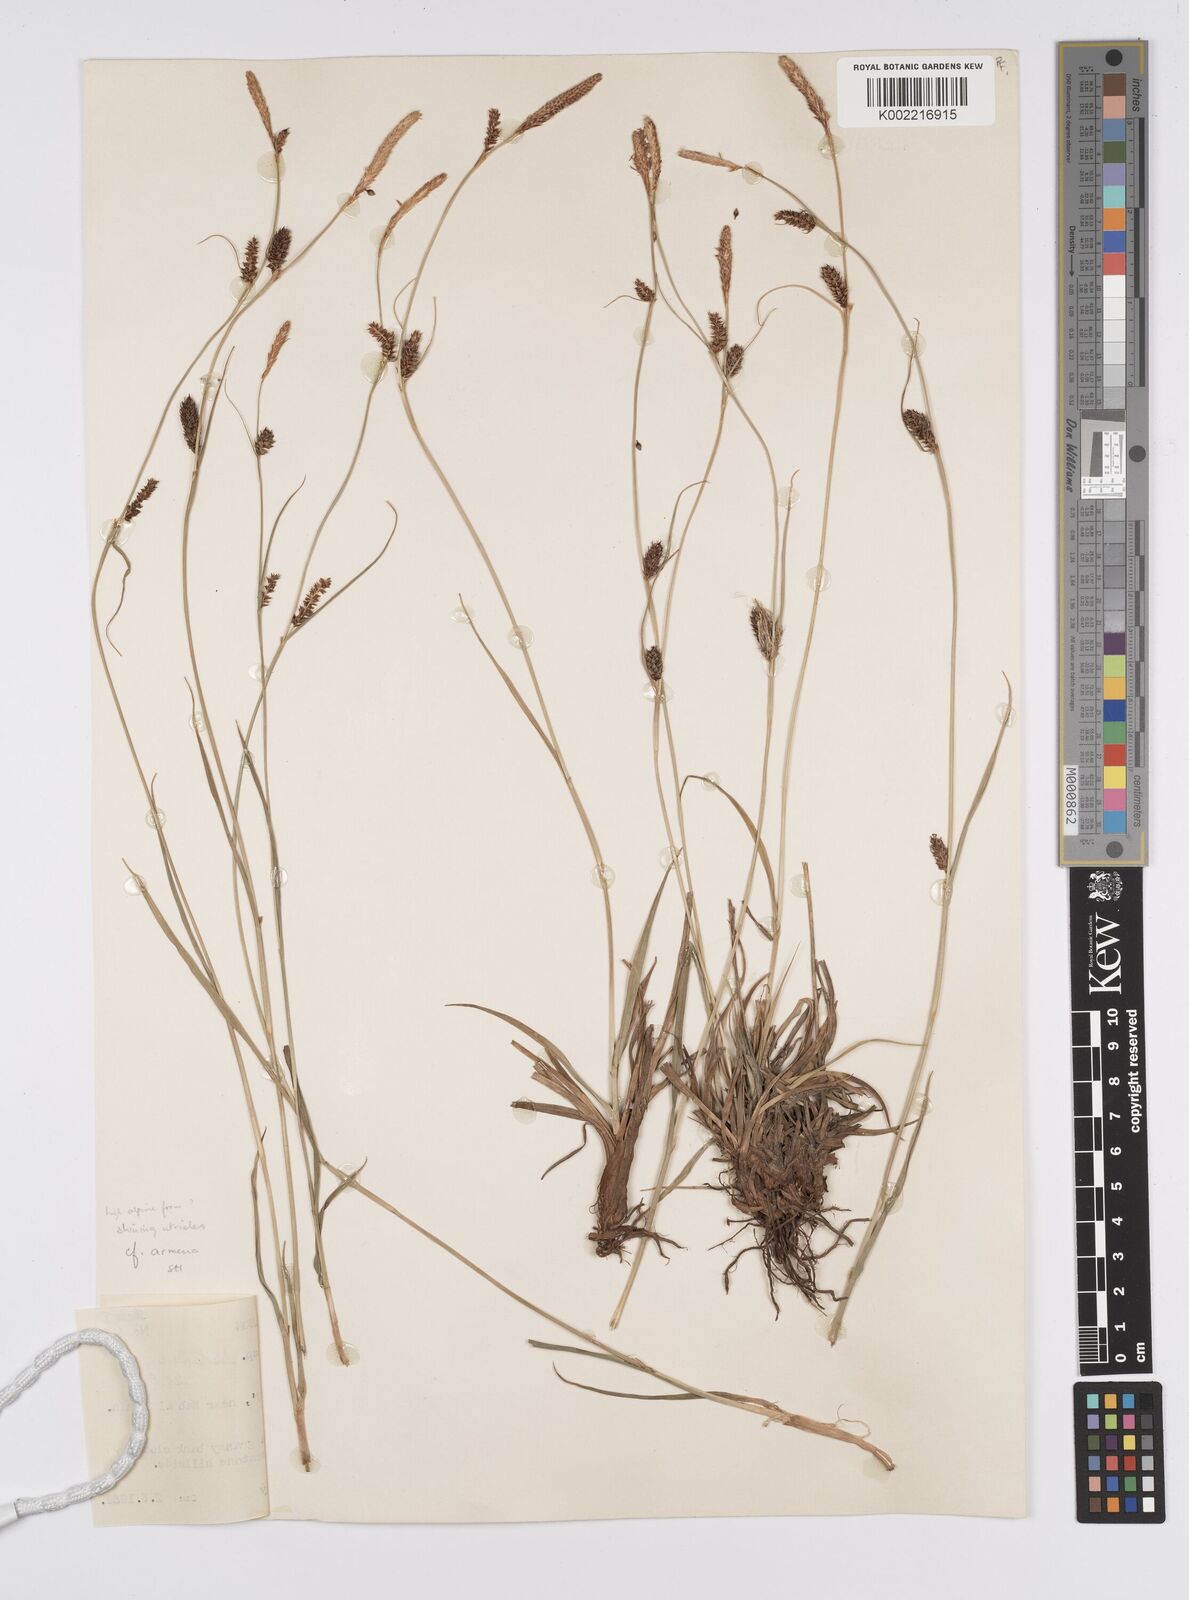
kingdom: Plantae
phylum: Tracheophyta
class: Liliopsida
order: Poales
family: Cyperaceae
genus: Carex
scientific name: Carex distans
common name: Distant sedge
